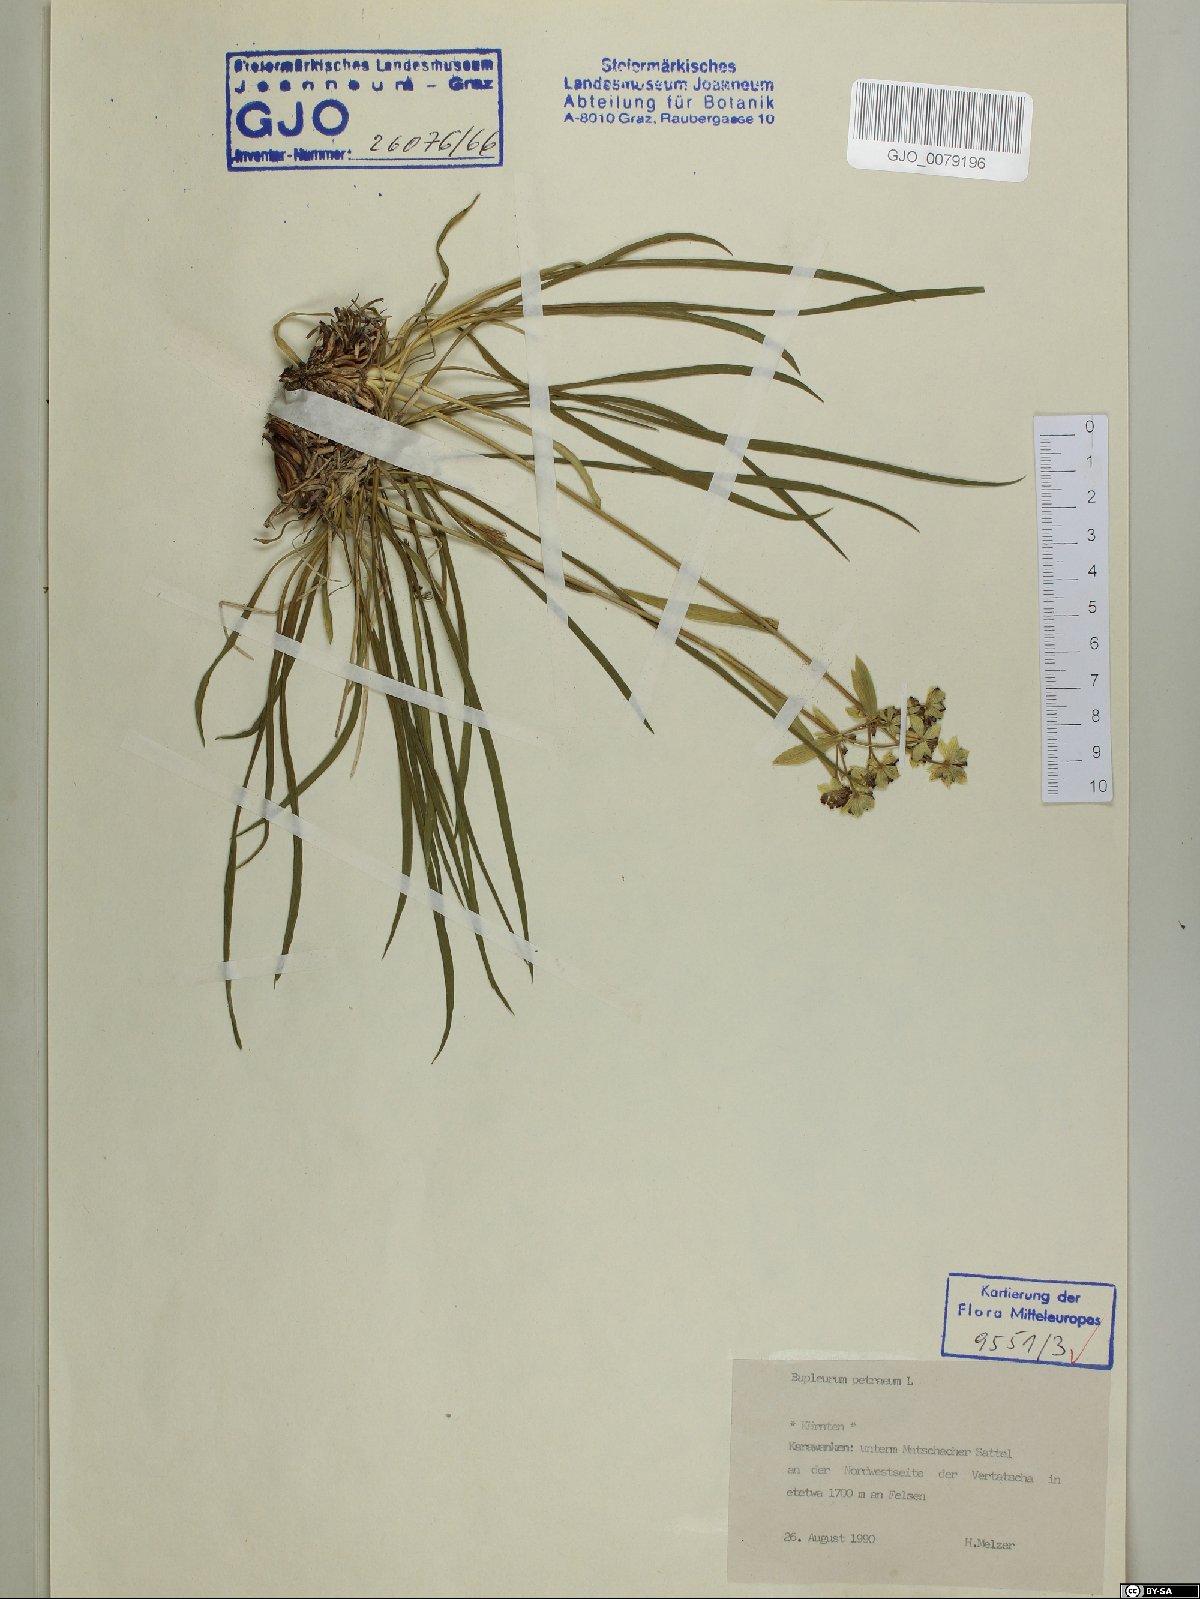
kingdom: Plantae
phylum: Tracheophyta
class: Magnoliopsida
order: Apiales
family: Apiaceae
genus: Bupleurum
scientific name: Bupleurum petraeum
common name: Rock hare's-ear
